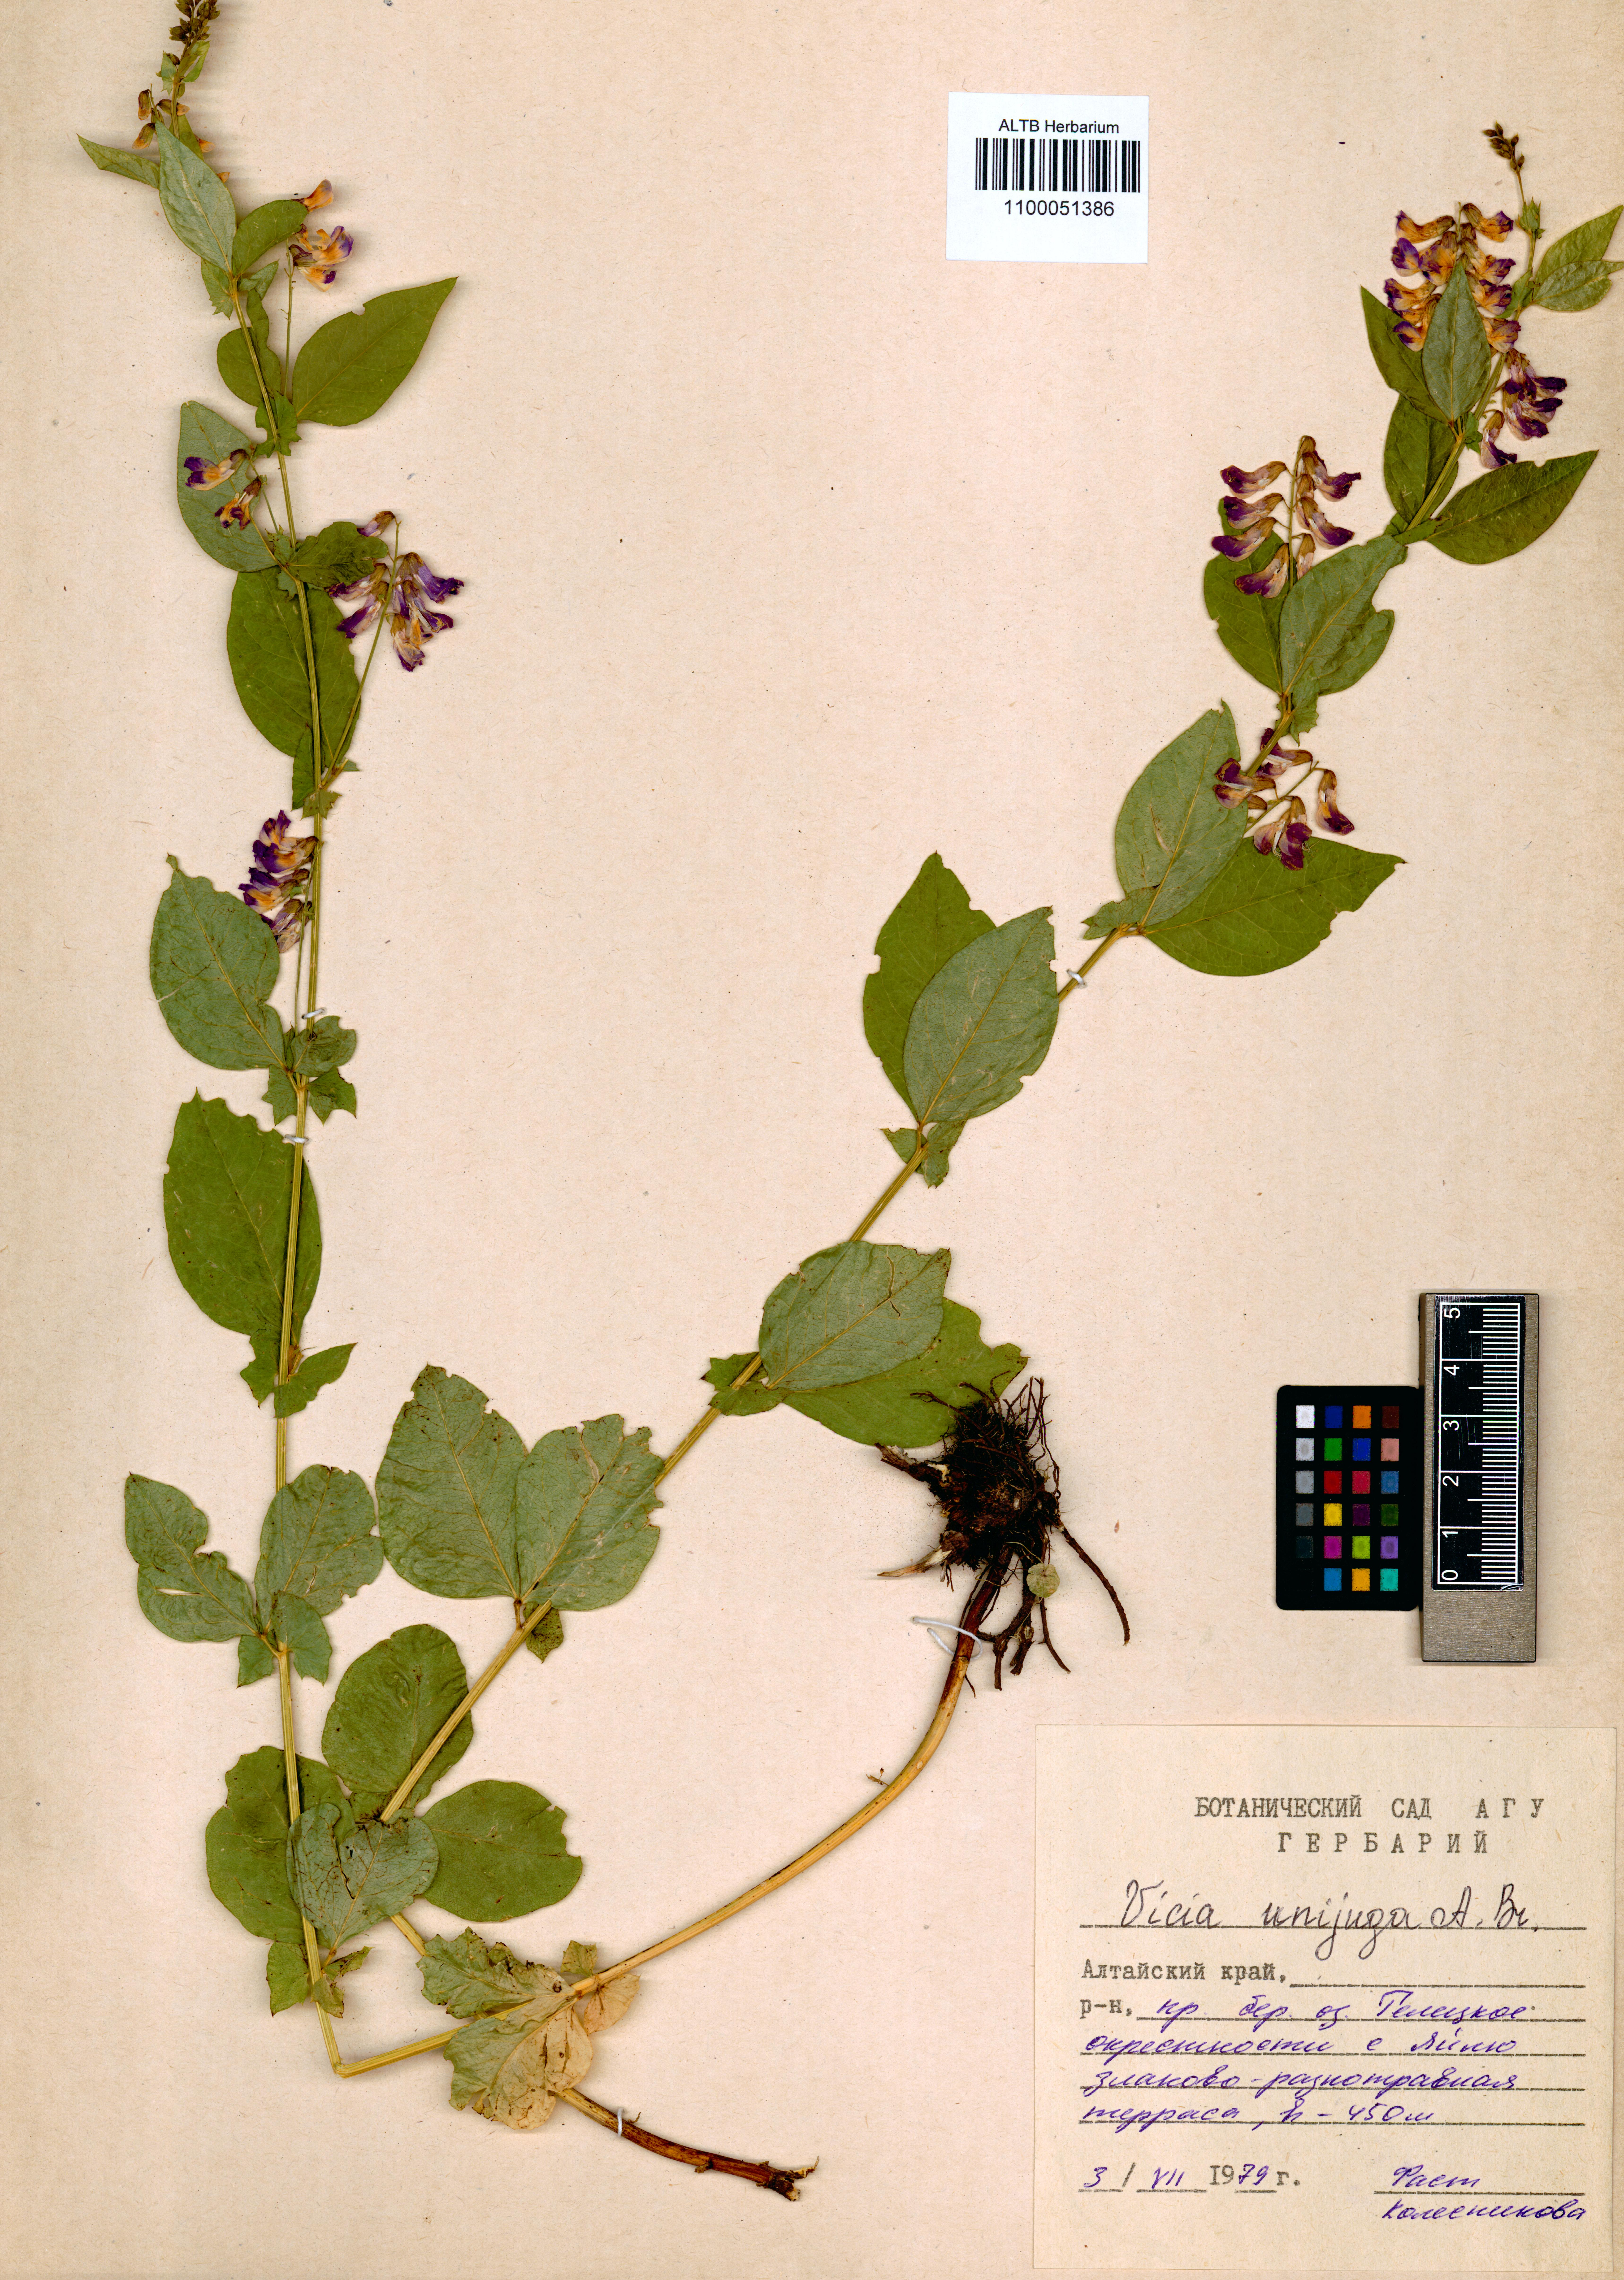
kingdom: Plantae
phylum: Tracheophyta
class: Magnoliopsida
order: Fabales
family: Fabaceae
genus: Vicia
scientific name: Vicia unijuga
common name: Two-leaf vetch
